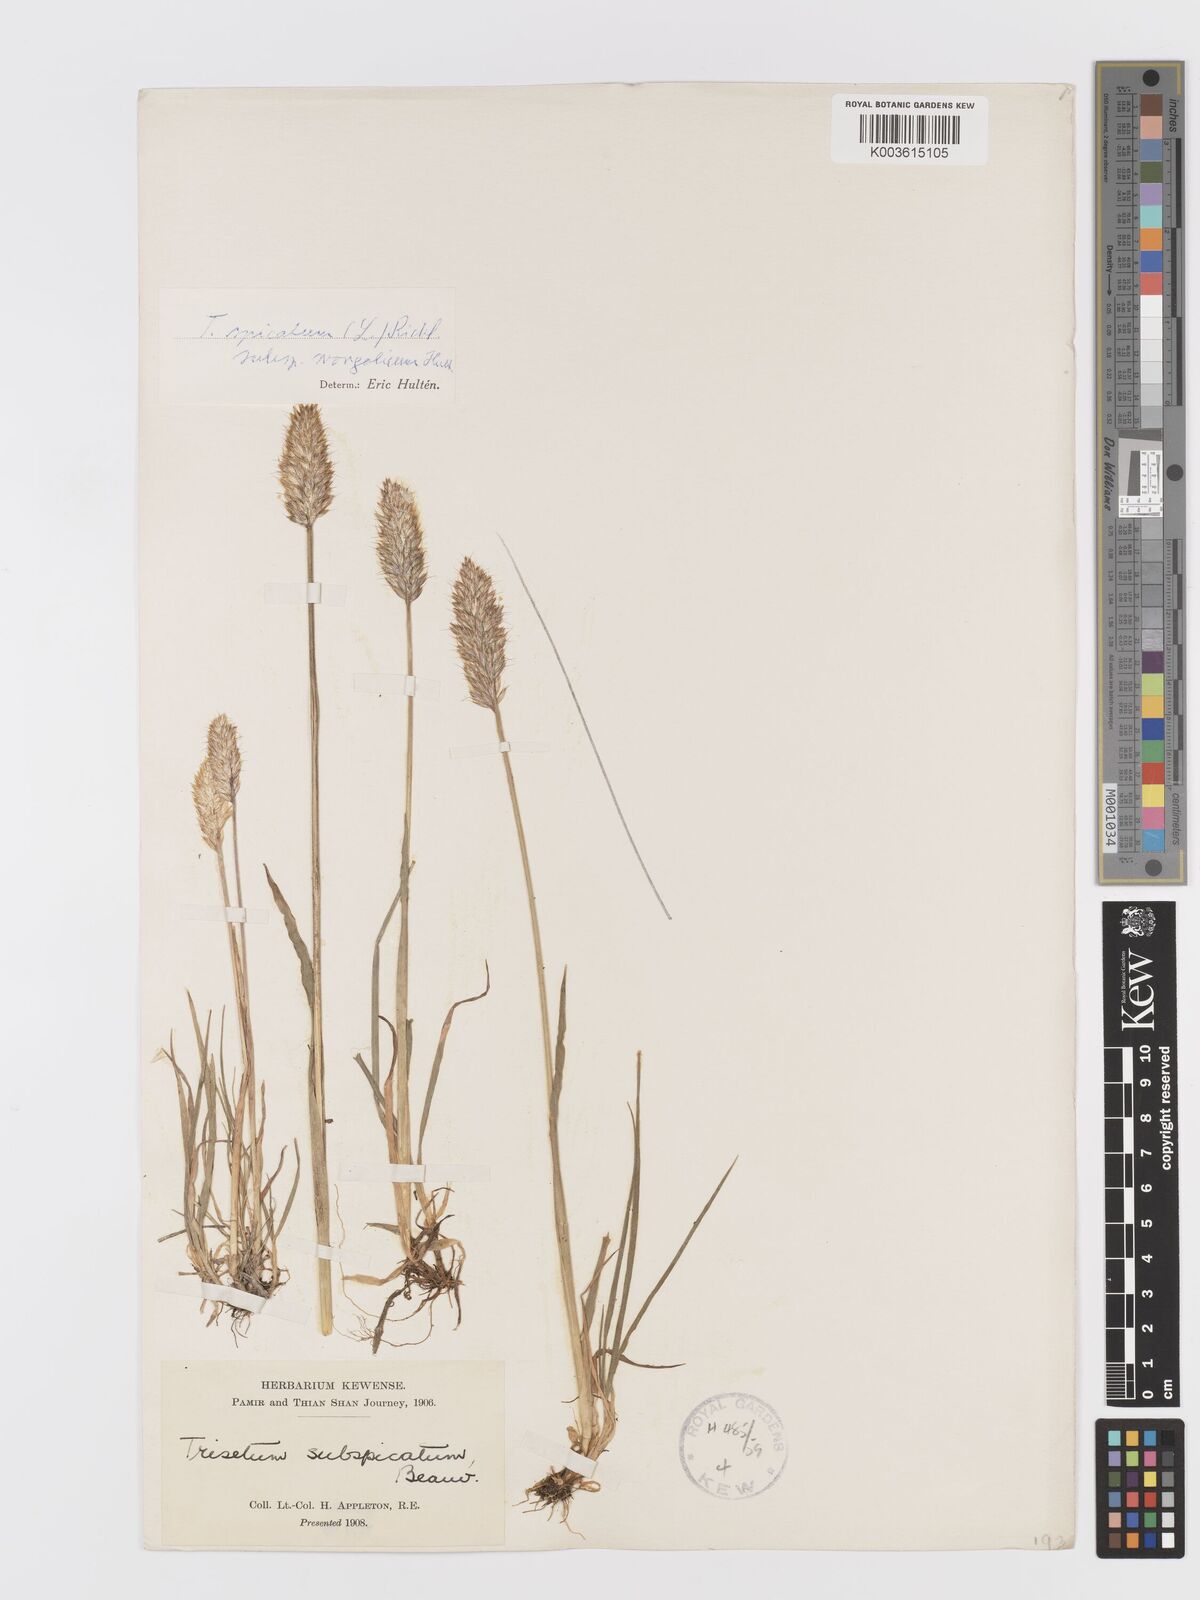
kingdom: Plantae
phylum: Tracheophyta
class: Liliopsida
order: Poales
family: Poaceae
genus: Koeleria
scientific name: Koeleria spicata
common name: Mountain trisetum
